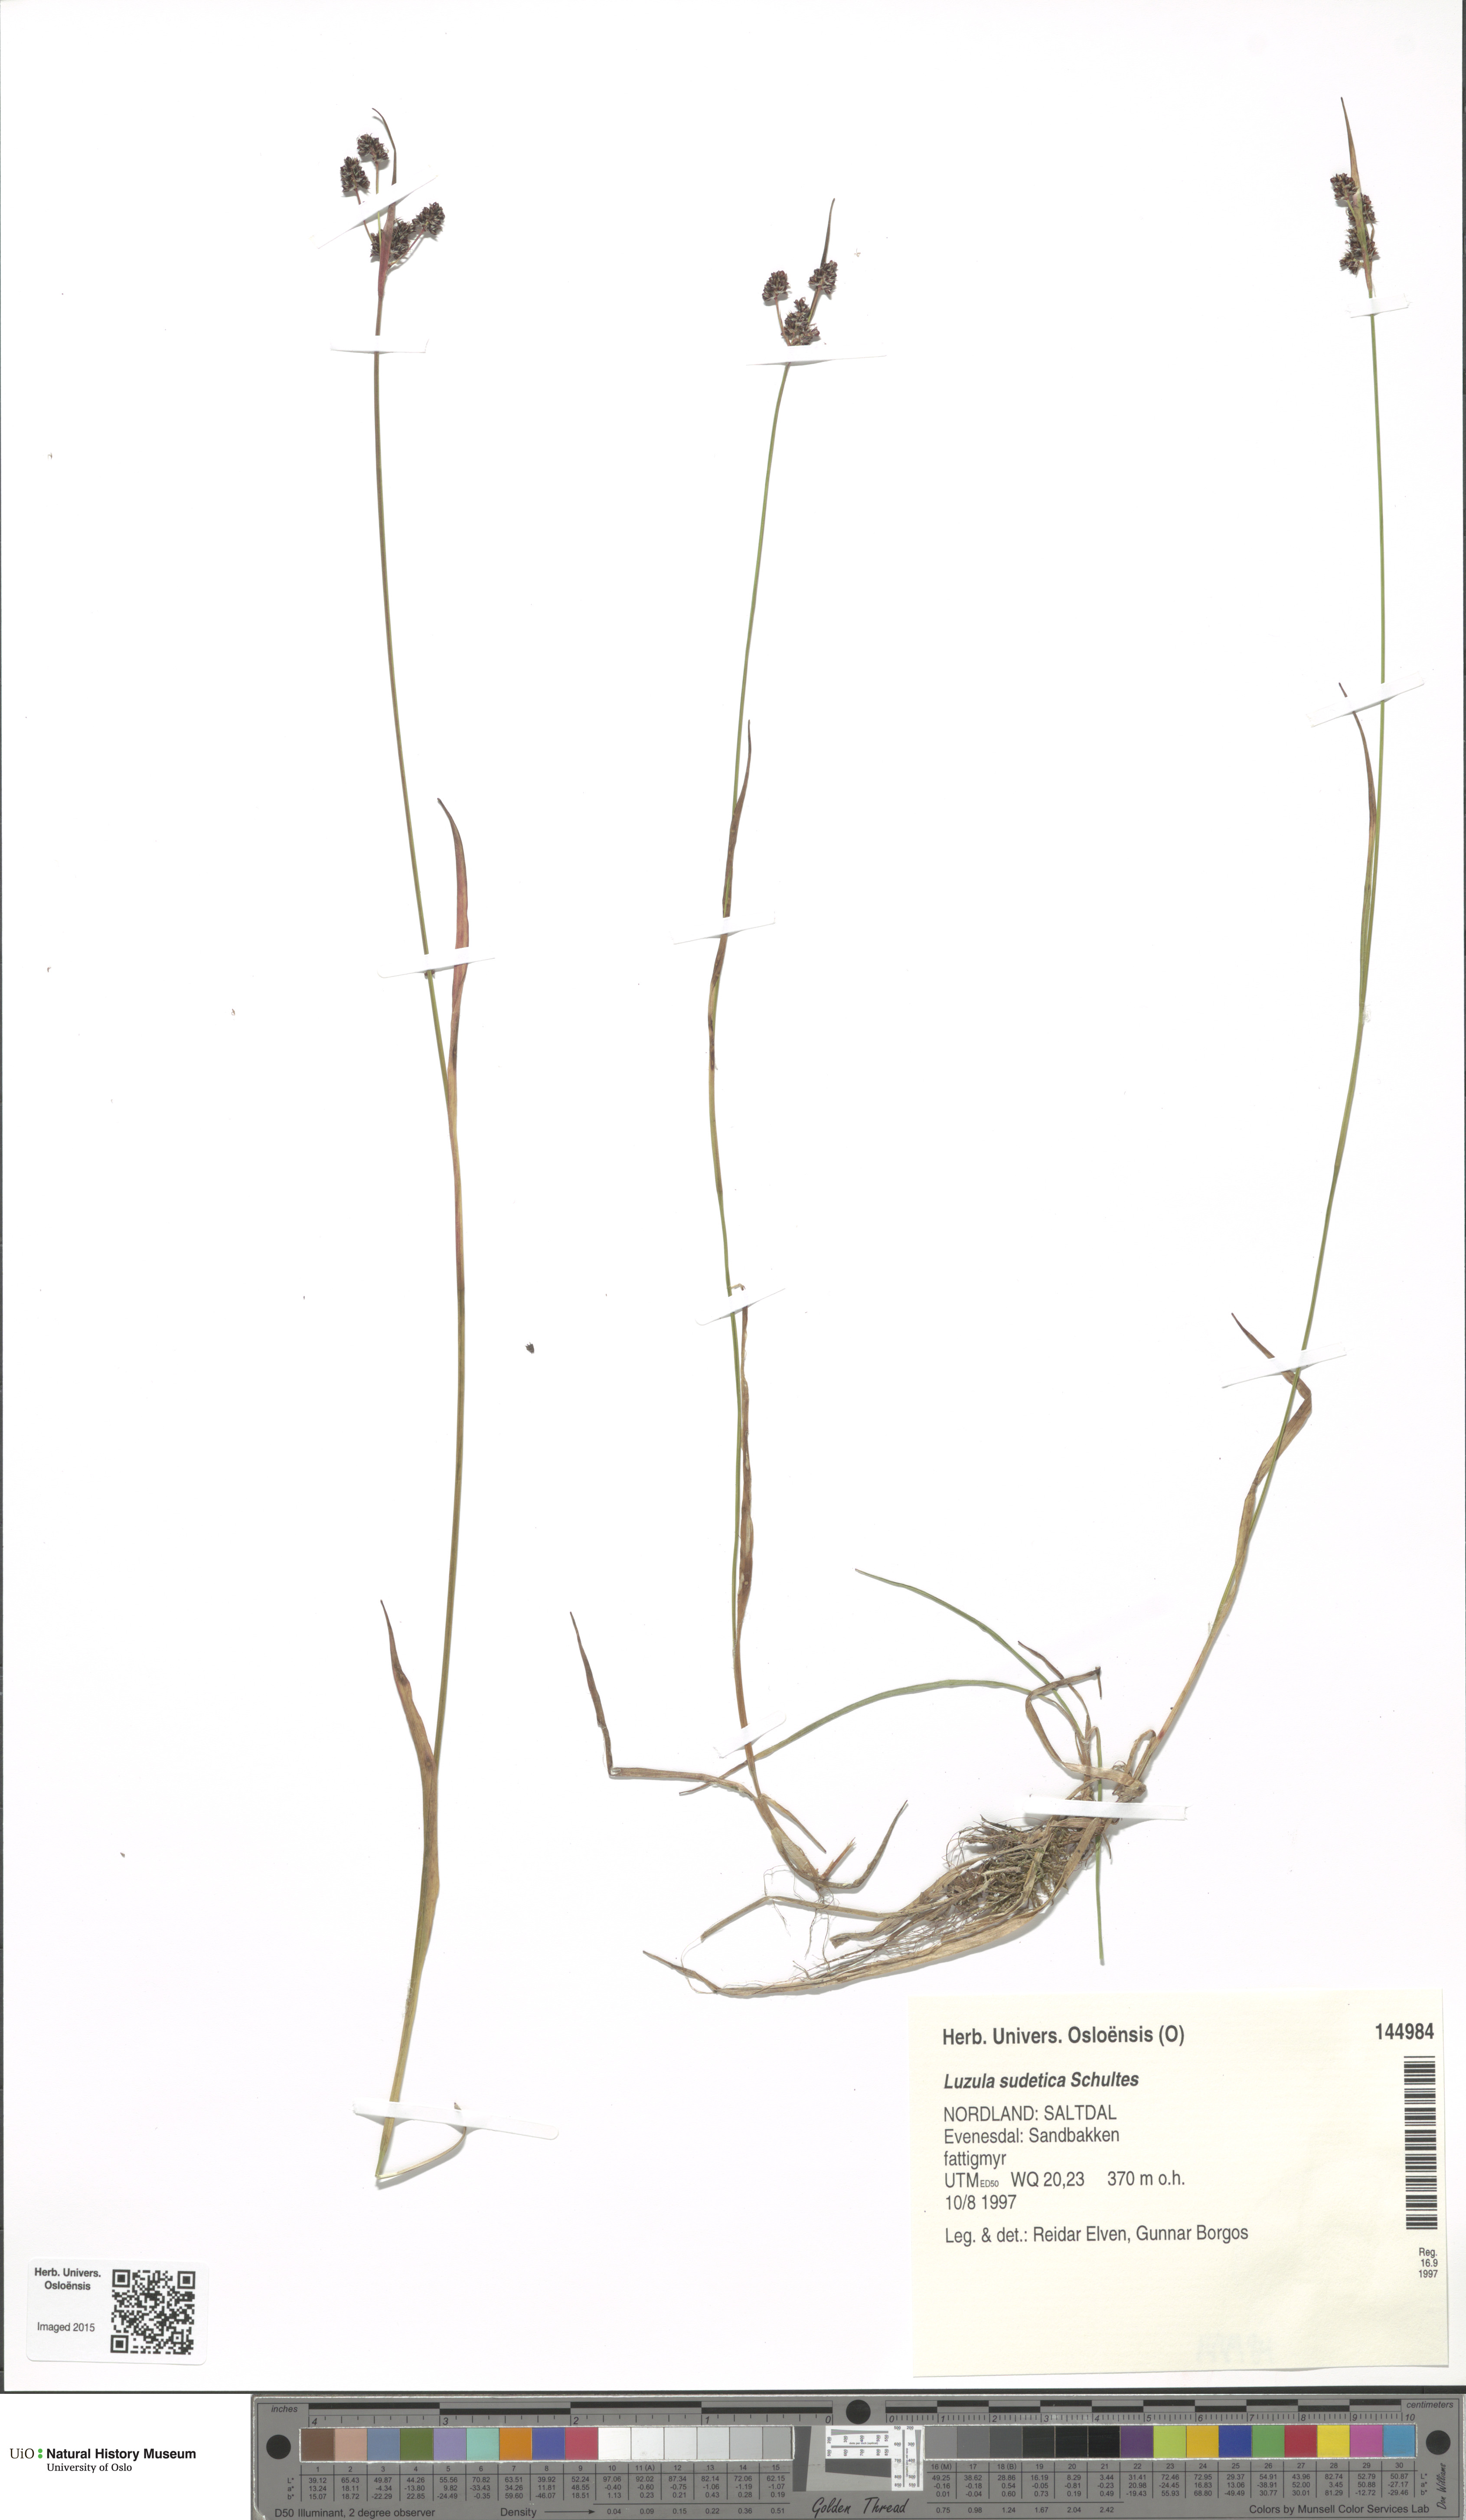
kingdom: Plantae
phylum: Tracheophyta
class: Liliopsida
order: Poales
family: Juncaceae
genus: Luzula
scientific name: Luzula sudetica
